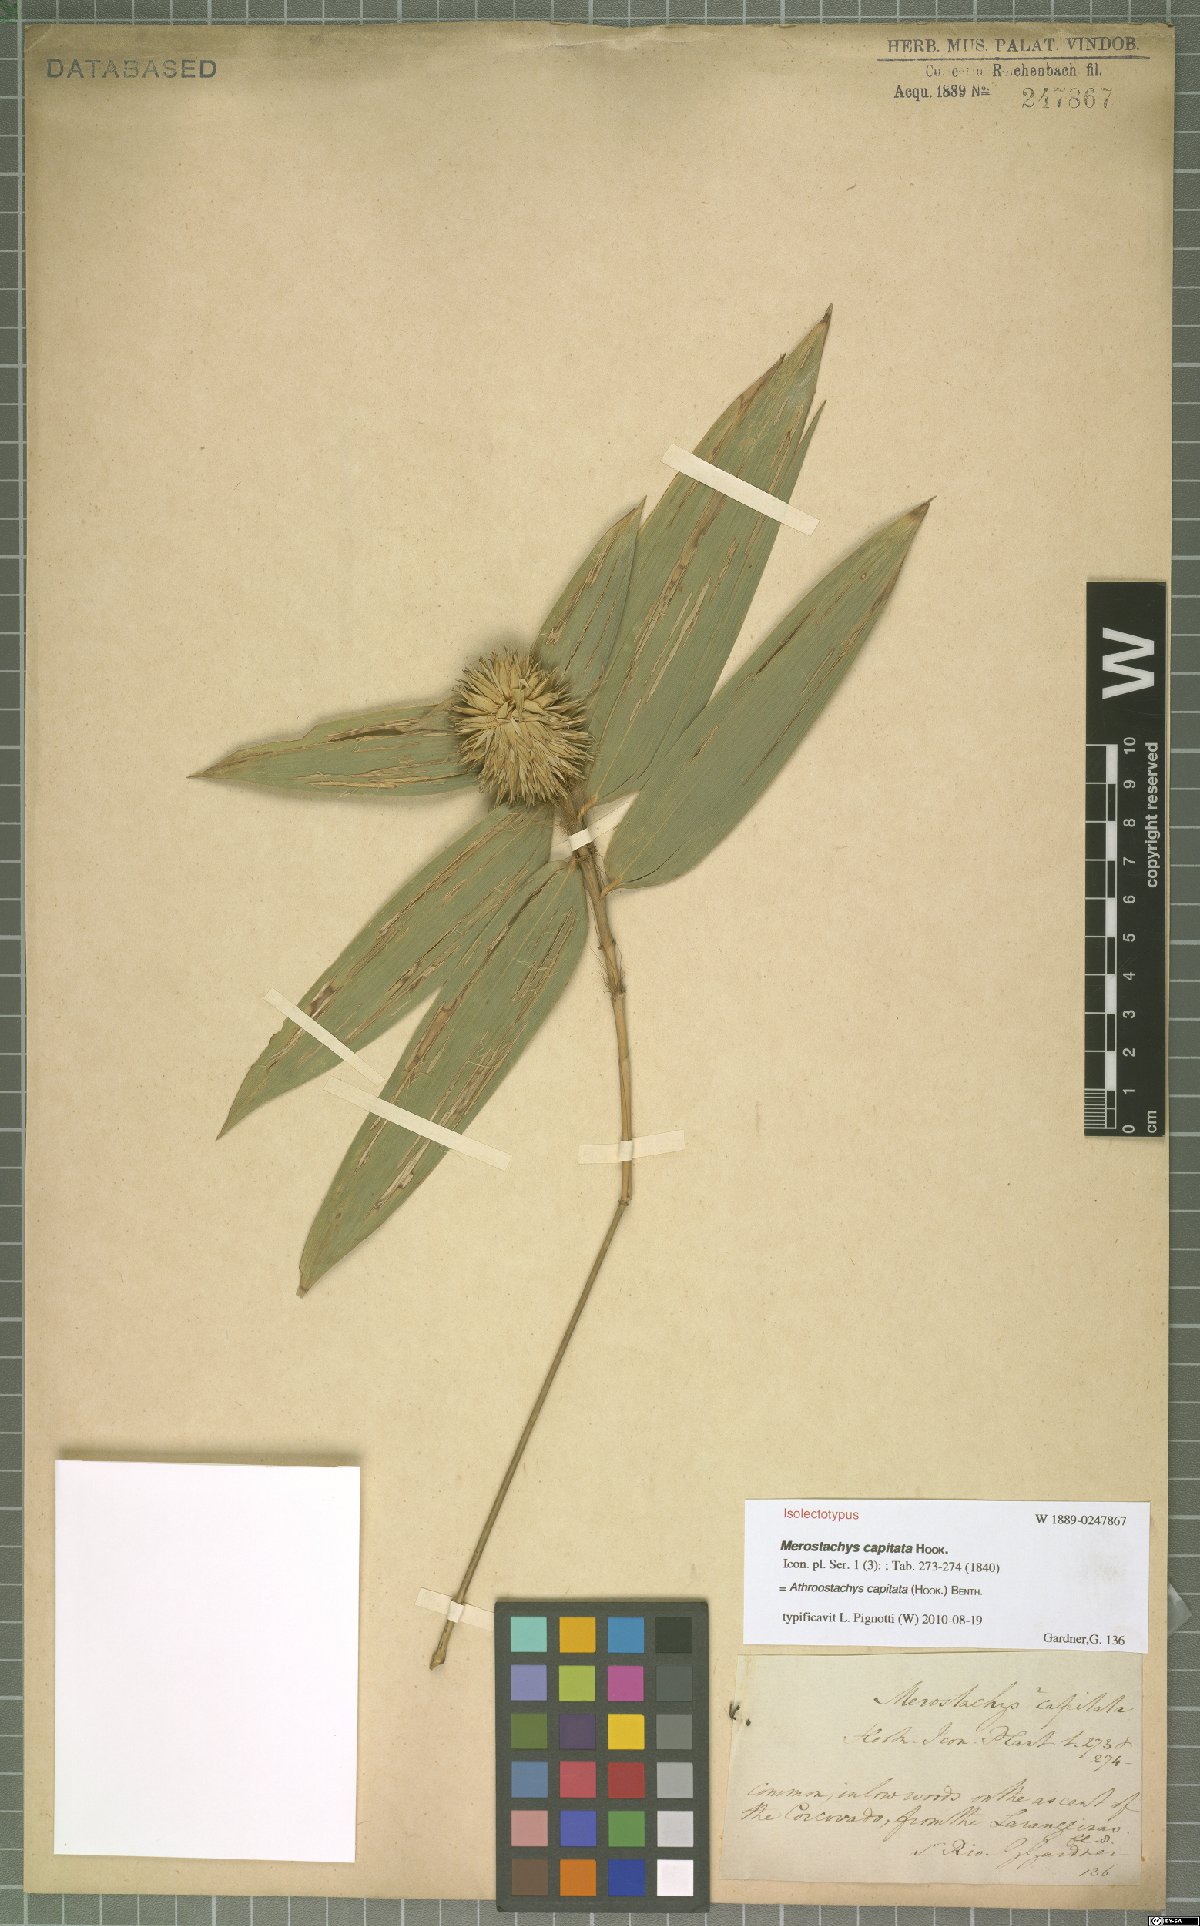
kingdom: Plantae
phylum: Tracheophyta
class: Liliopsida
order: Poales
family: Poaceae
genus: Athroostachys
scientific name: Athroostachys capitata
